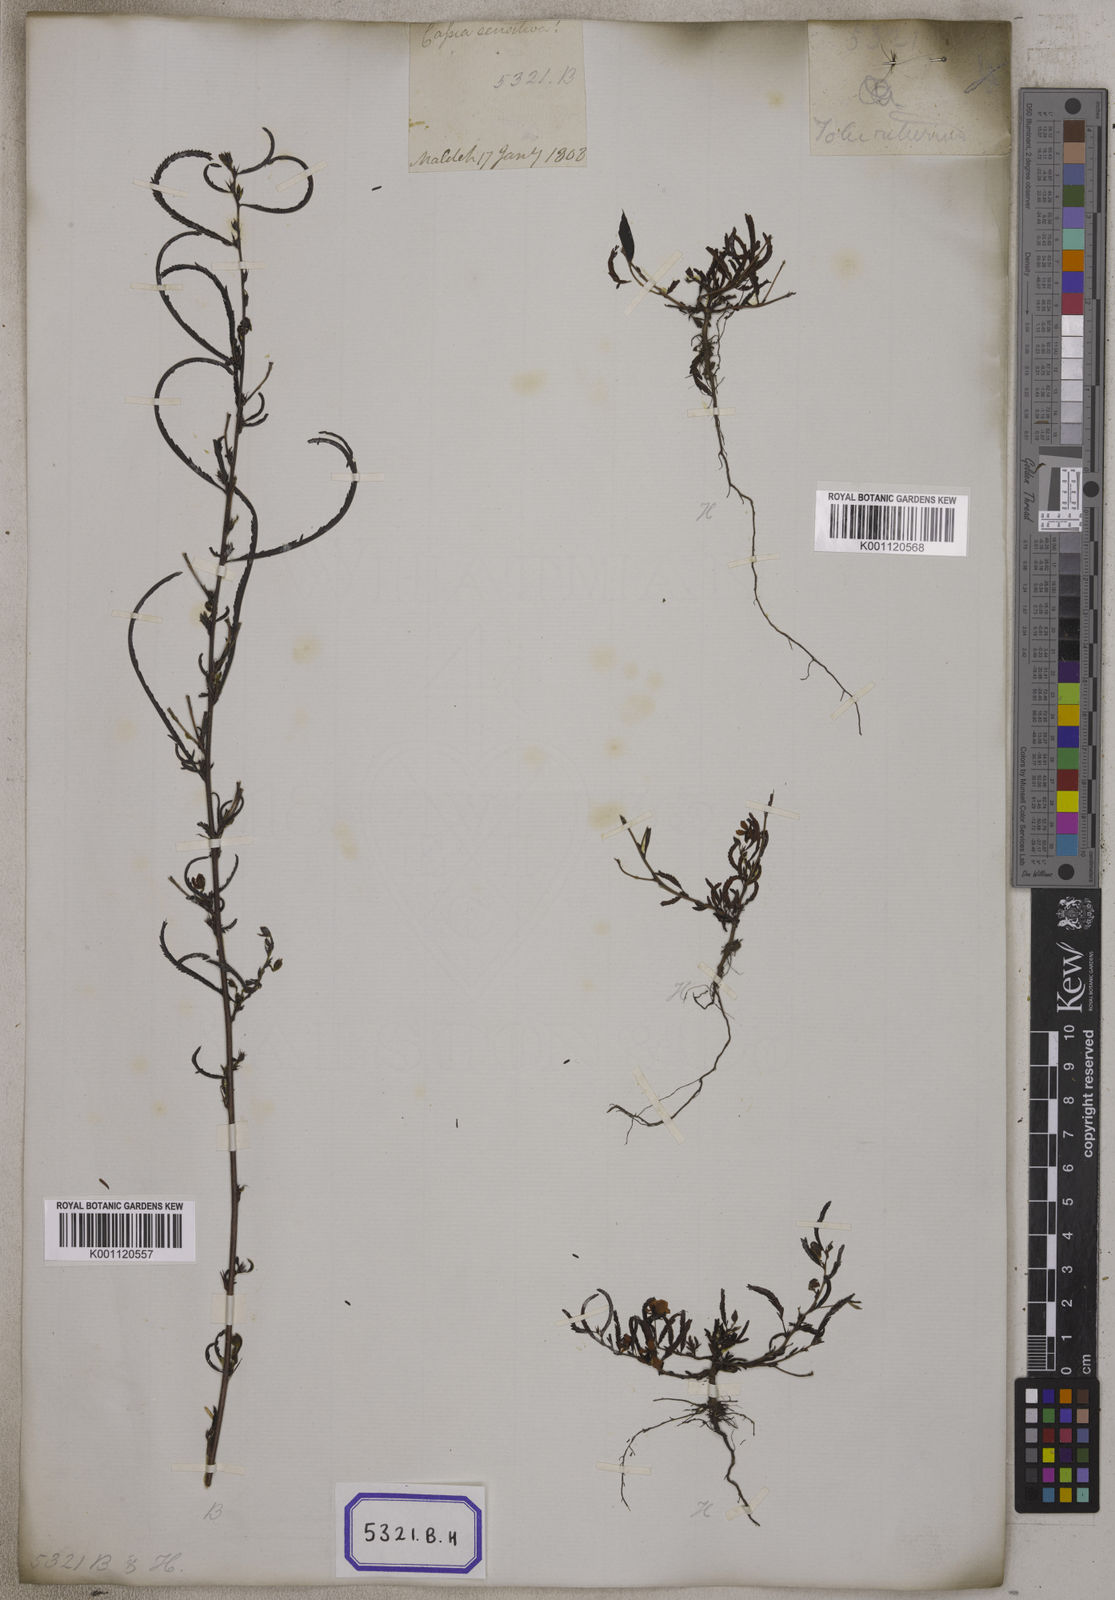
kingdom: Plantae
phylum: Tracheophyta
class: Magnoliopsida
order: Fabales
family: Fabaceae
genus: Chamaecrista
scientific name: Chamaecrista mimosoides
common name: Fish-bone cassia
